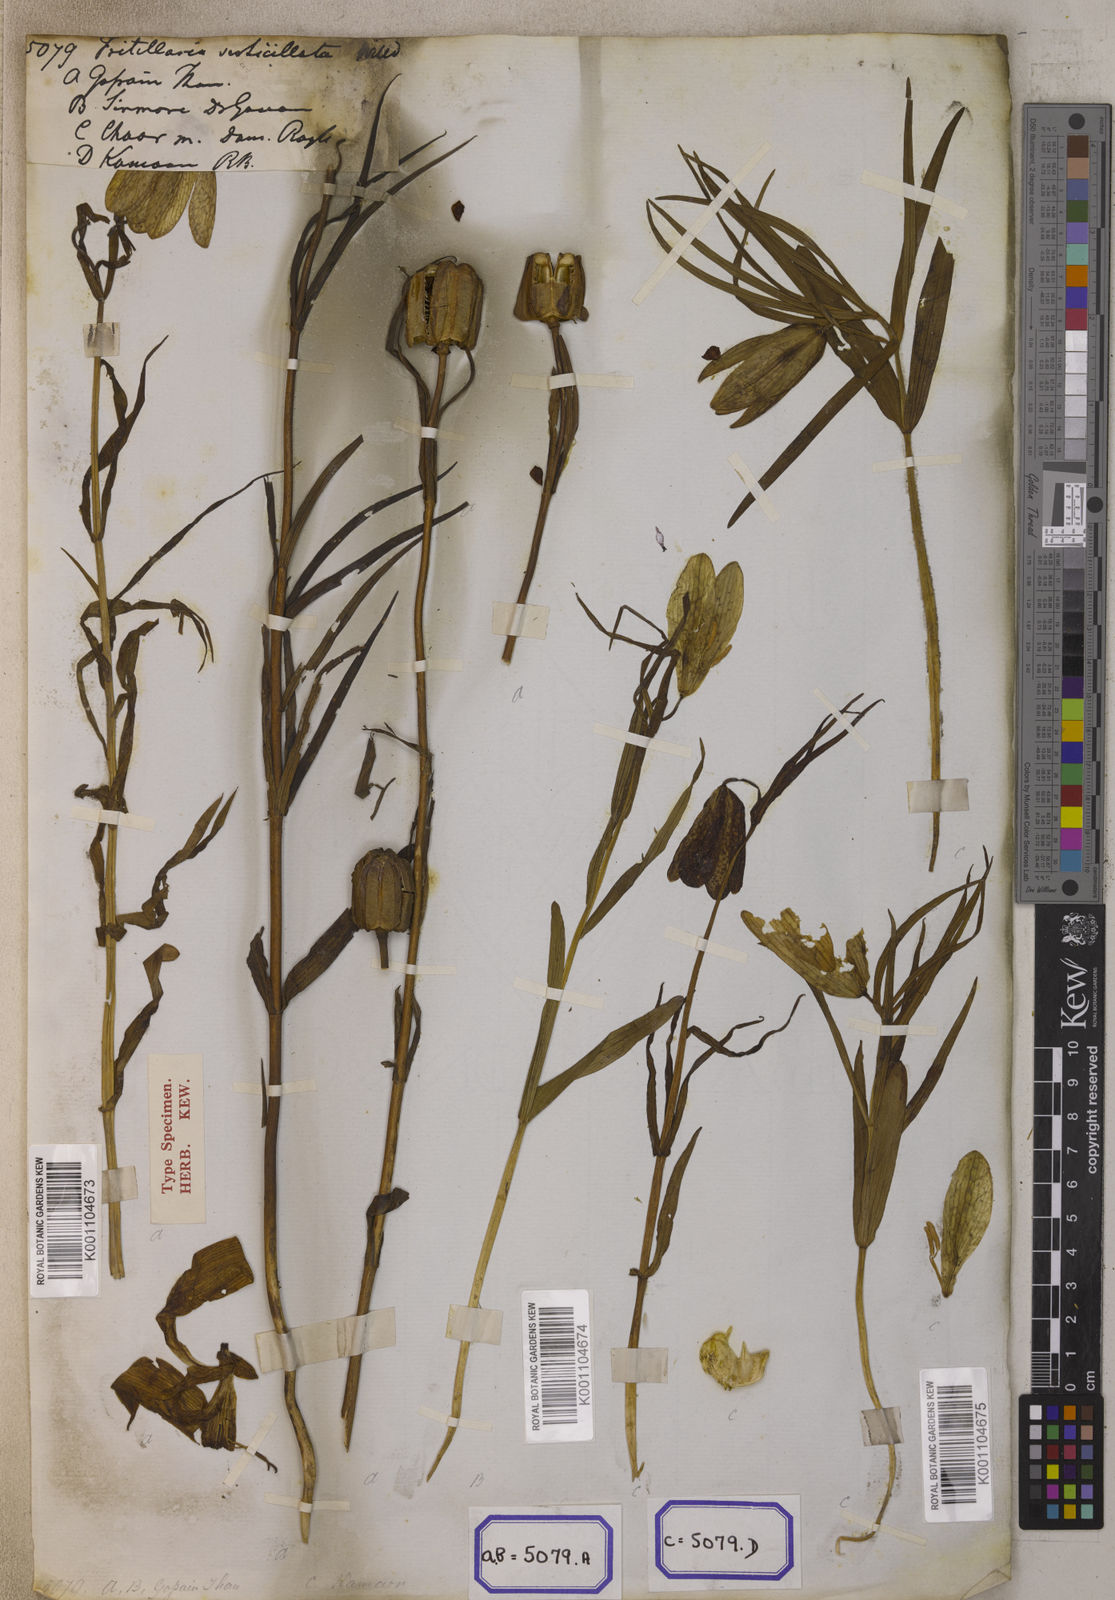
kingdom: Plantae
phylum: Tracheophyta
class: Liliopsida
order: Liliales
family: Liliaceae
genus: Fritillaria
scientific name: Fritillaria
